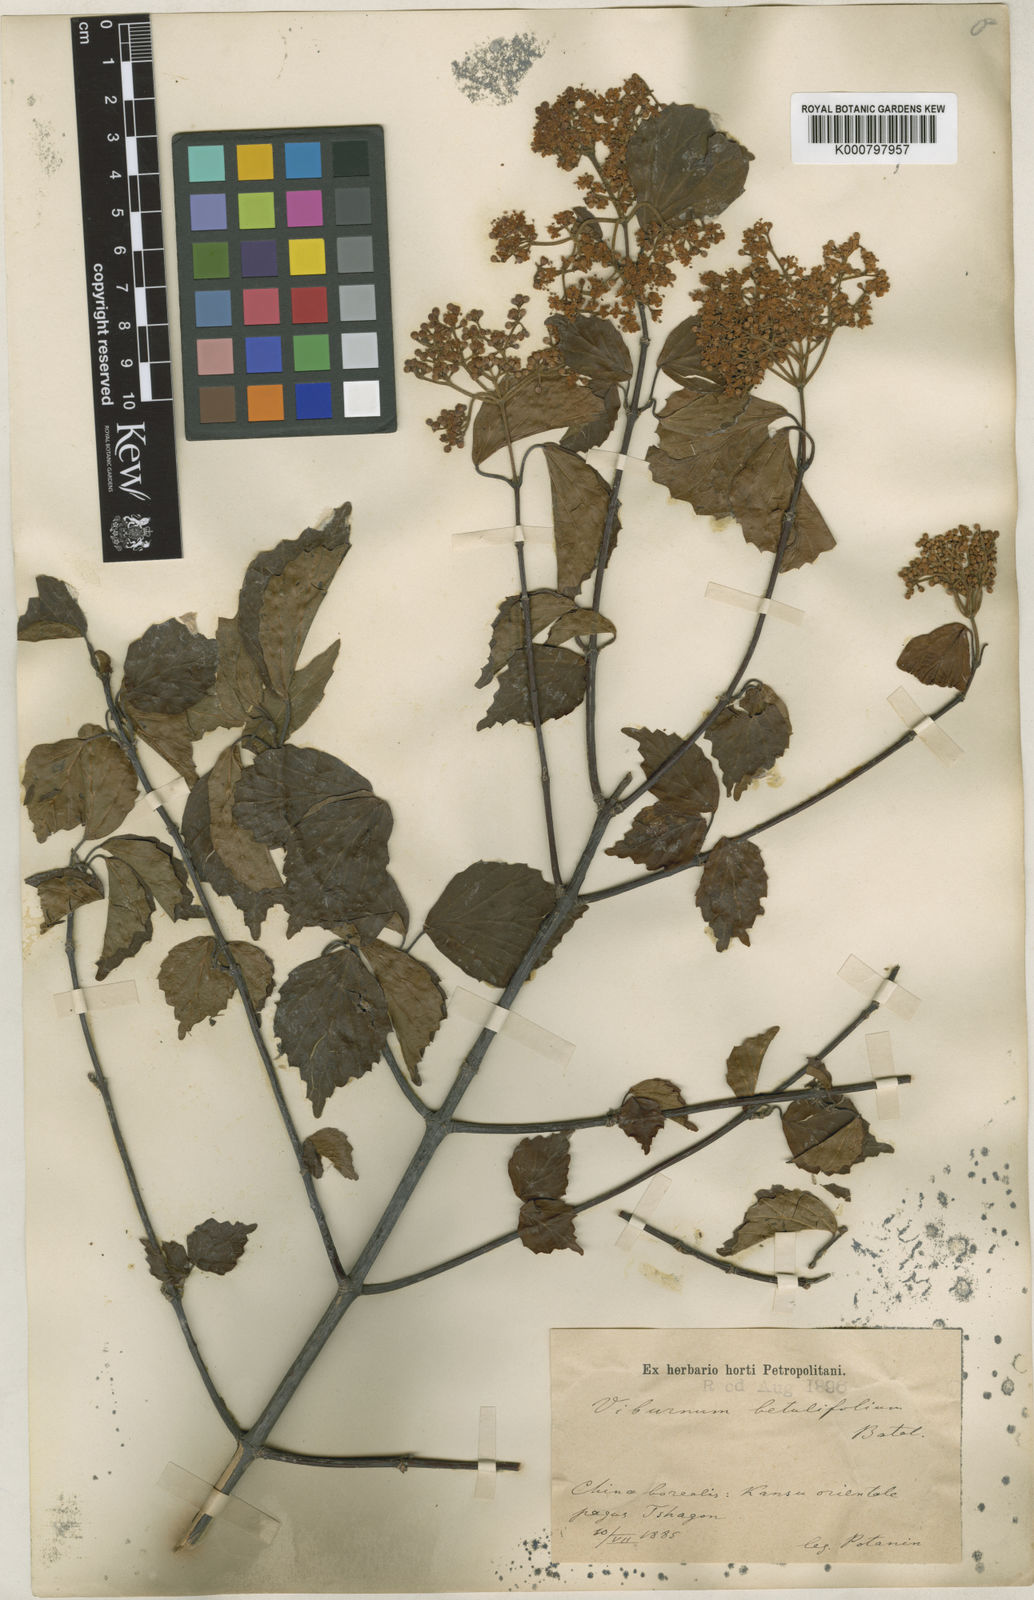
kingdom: Plantae
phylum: Tracheophyta
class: Magnoliopsida
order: Dipsacales
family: Viburnaceae
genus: Viburnum
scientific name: Viburnum betulifolium
